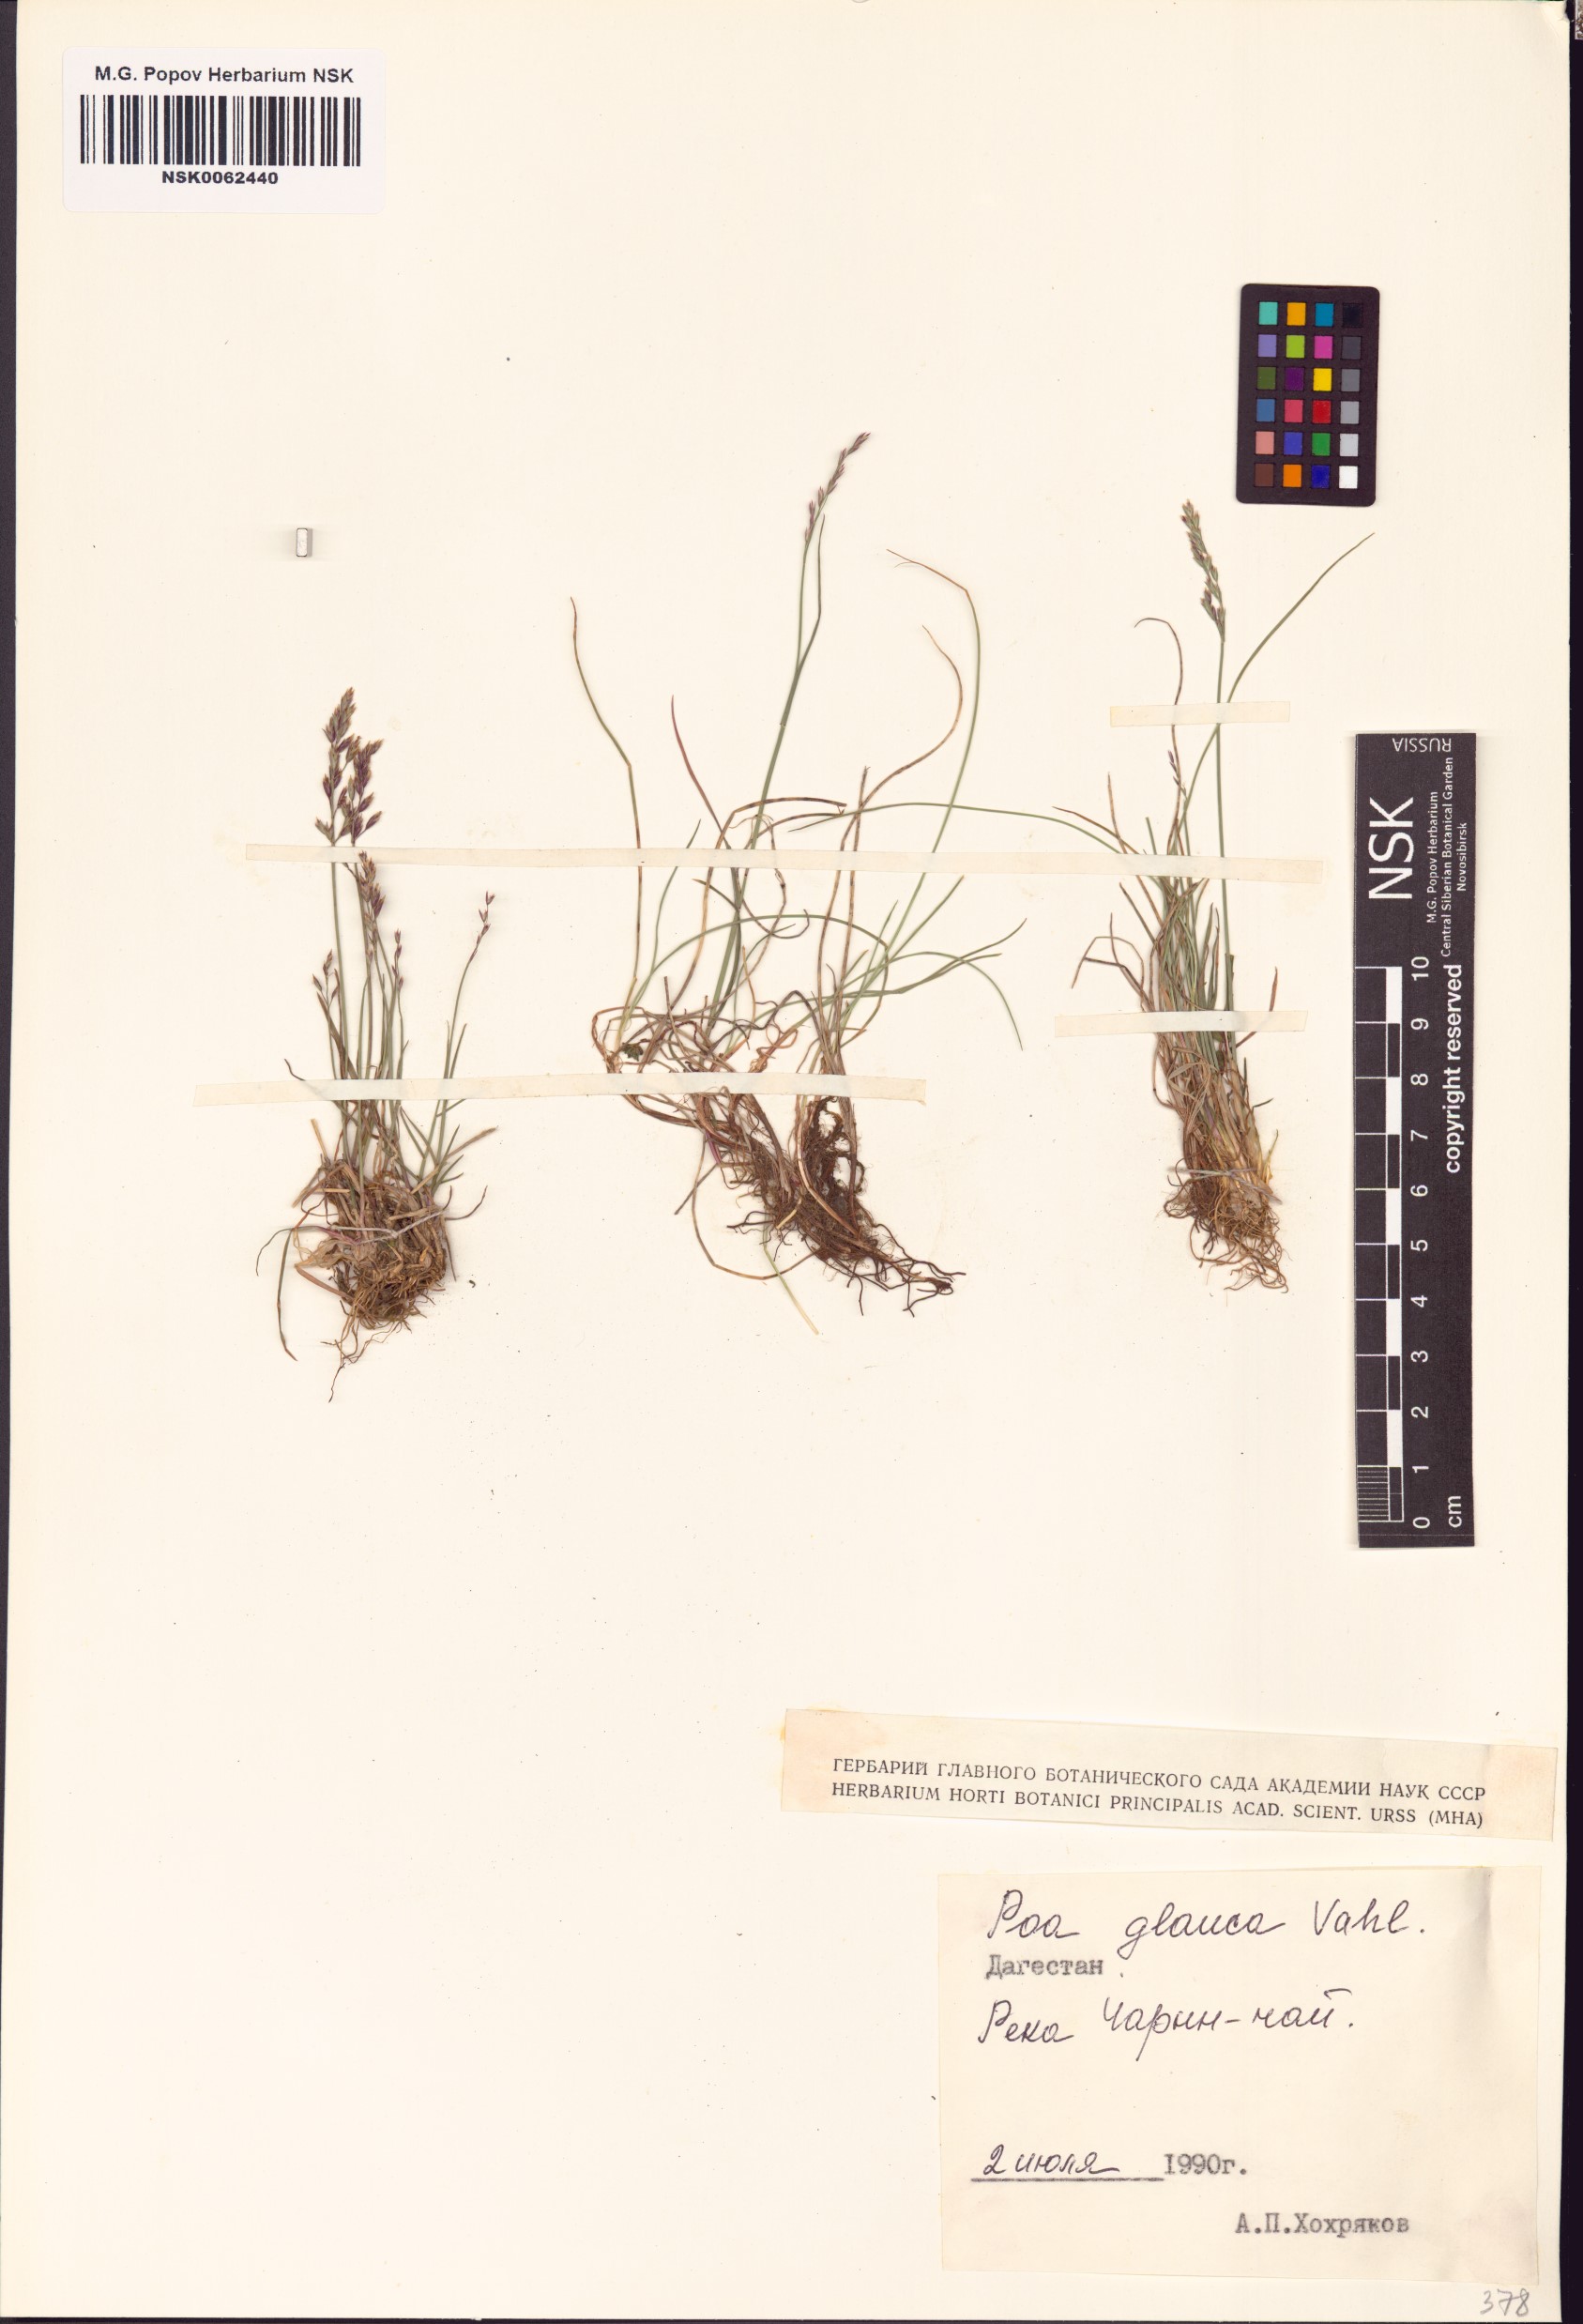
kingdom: Plantae
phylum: Tracheophyta
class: Liliopsida
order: Poales
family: Poaceae
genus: Poa
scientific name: Poa glauca
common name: Glaucous bluegrass
